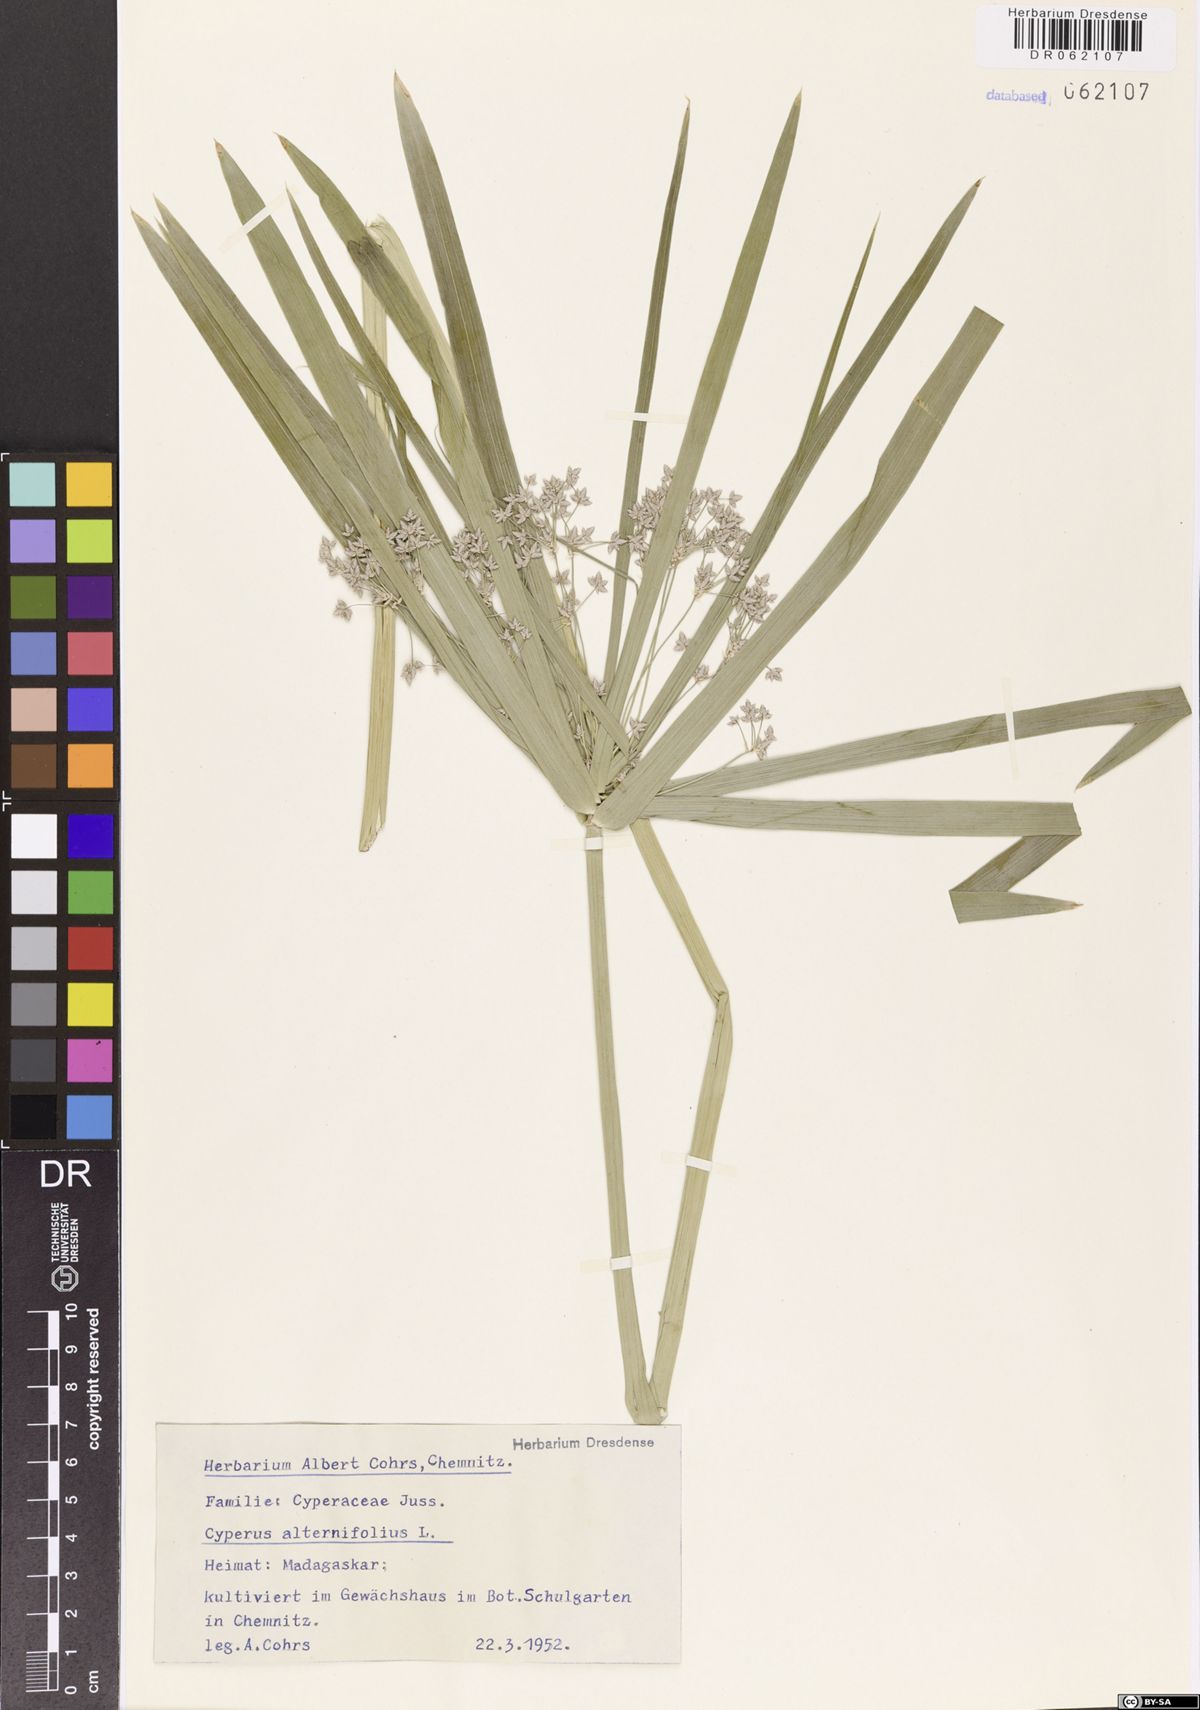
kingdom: Plantae
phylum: Tracheophyta
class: Liliopsida
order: Poales
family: Cyperaceae
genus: Cyperus
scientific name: Cyperus alternifolius
